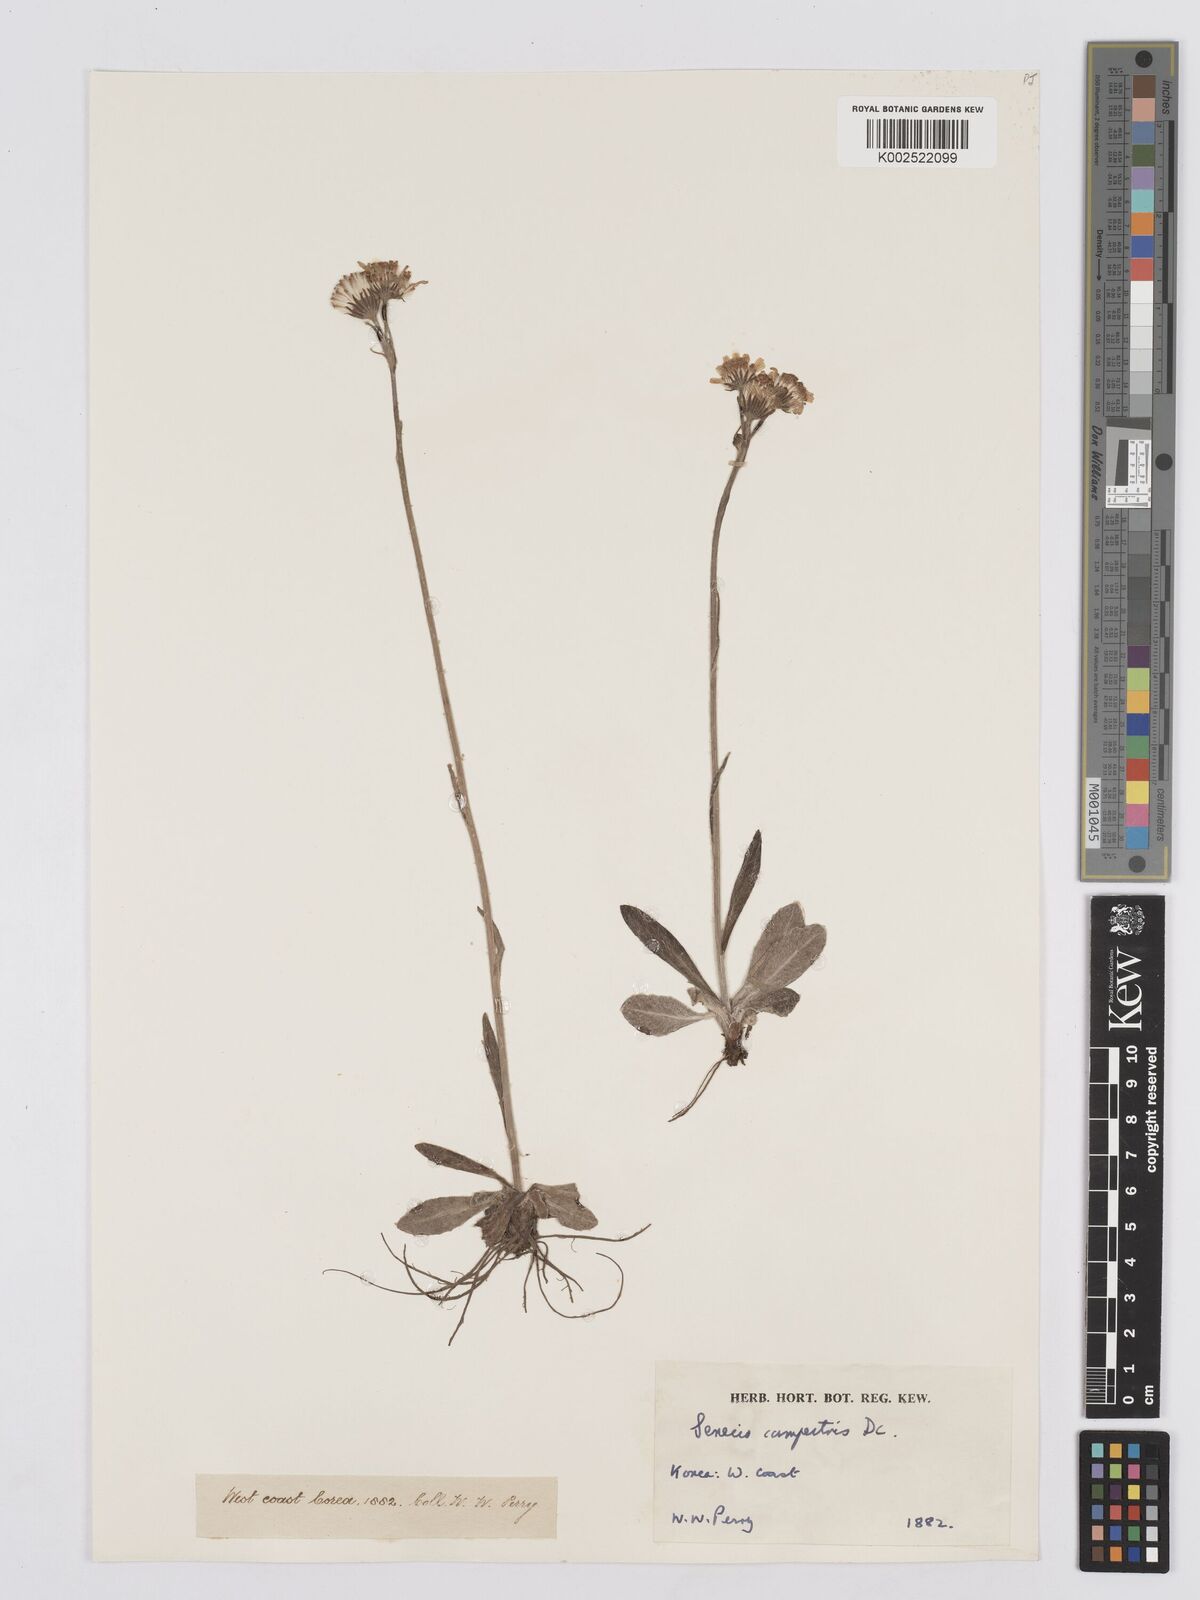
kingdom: Plantae
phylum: Tracheophyta
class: Magnoliopsida
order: Asterales
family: Asteraceae
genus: Tephroseris
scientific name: Tephroseris kirilowii
